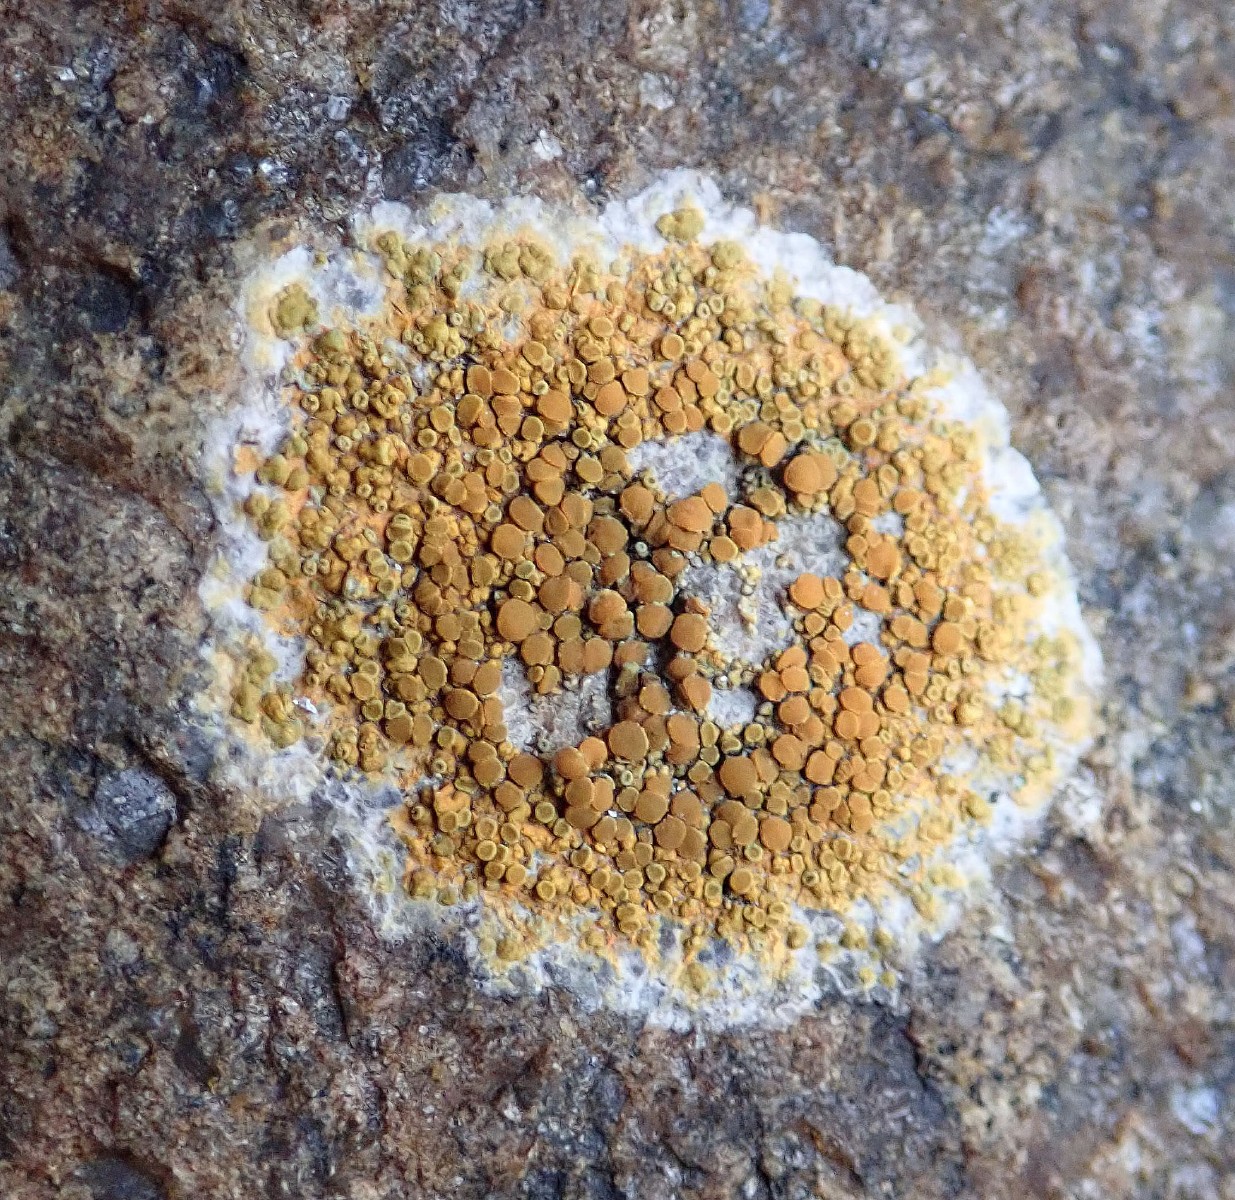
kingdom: Fungi
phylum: Ascomycota
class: Lecanoromycetes
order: Teloschistales
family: Teloschistaceae
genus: Flavoplaca
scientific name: Flavoplaca marina
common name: strand-orangelav
